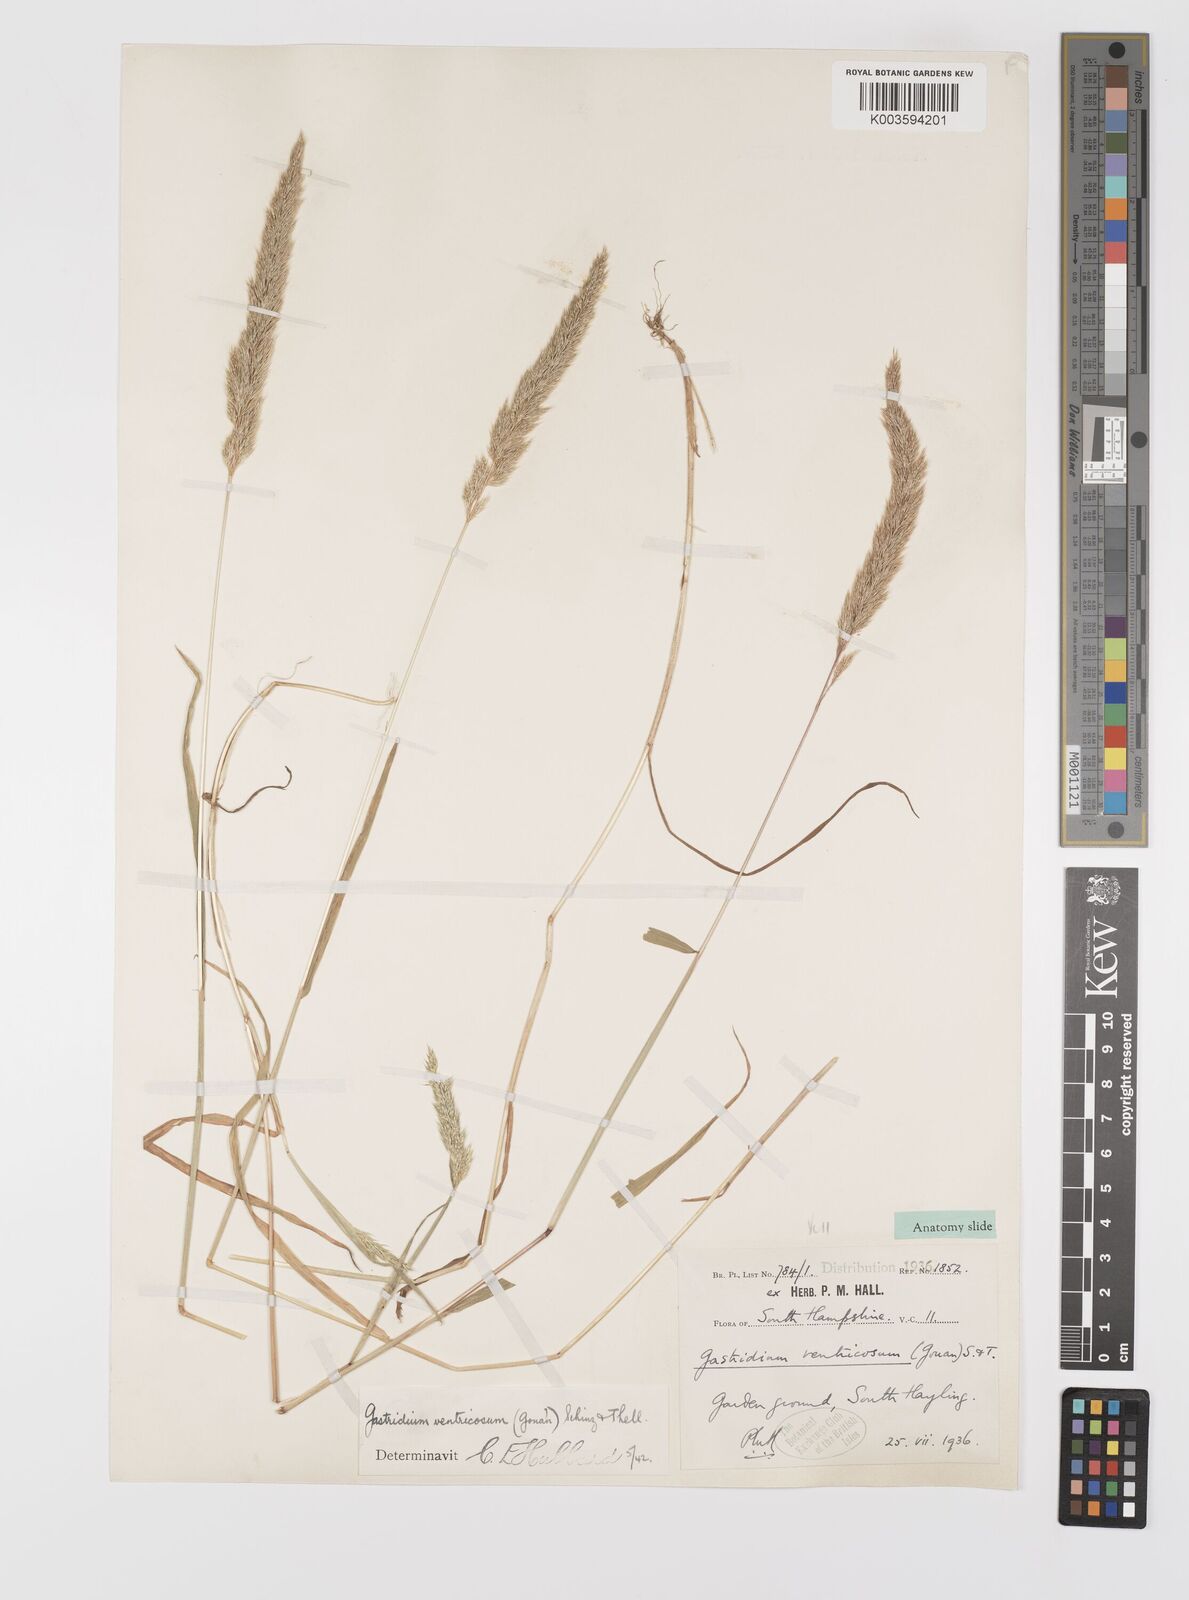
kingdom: Plantae
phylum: Tracheophyta
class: Liliopsida
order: Poales
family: Poaceae
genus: Gastridium
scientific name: Gastridium ventricosum
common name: Nit-grass
